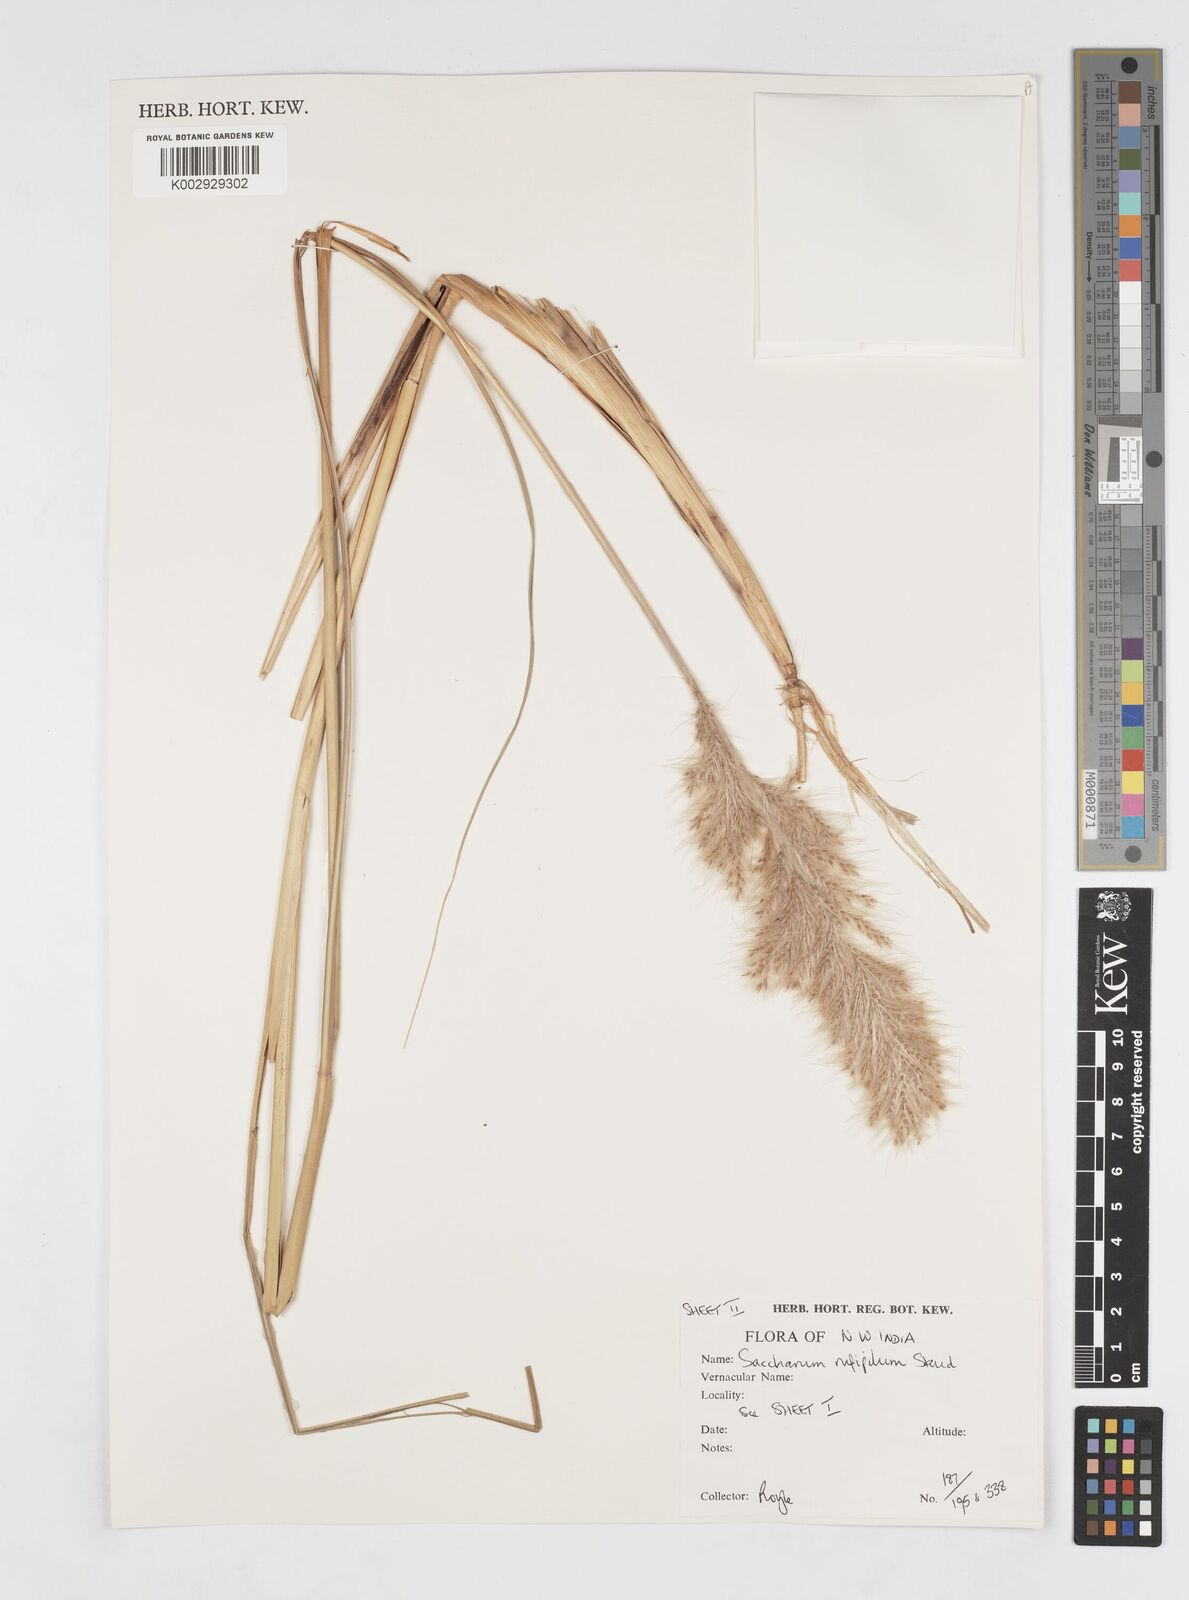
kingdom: Plantae
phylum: Tracheophyta
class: Liliopsida
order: Poales
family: Poaceae
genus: Tripidium
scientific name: Tripidium rufipilum
